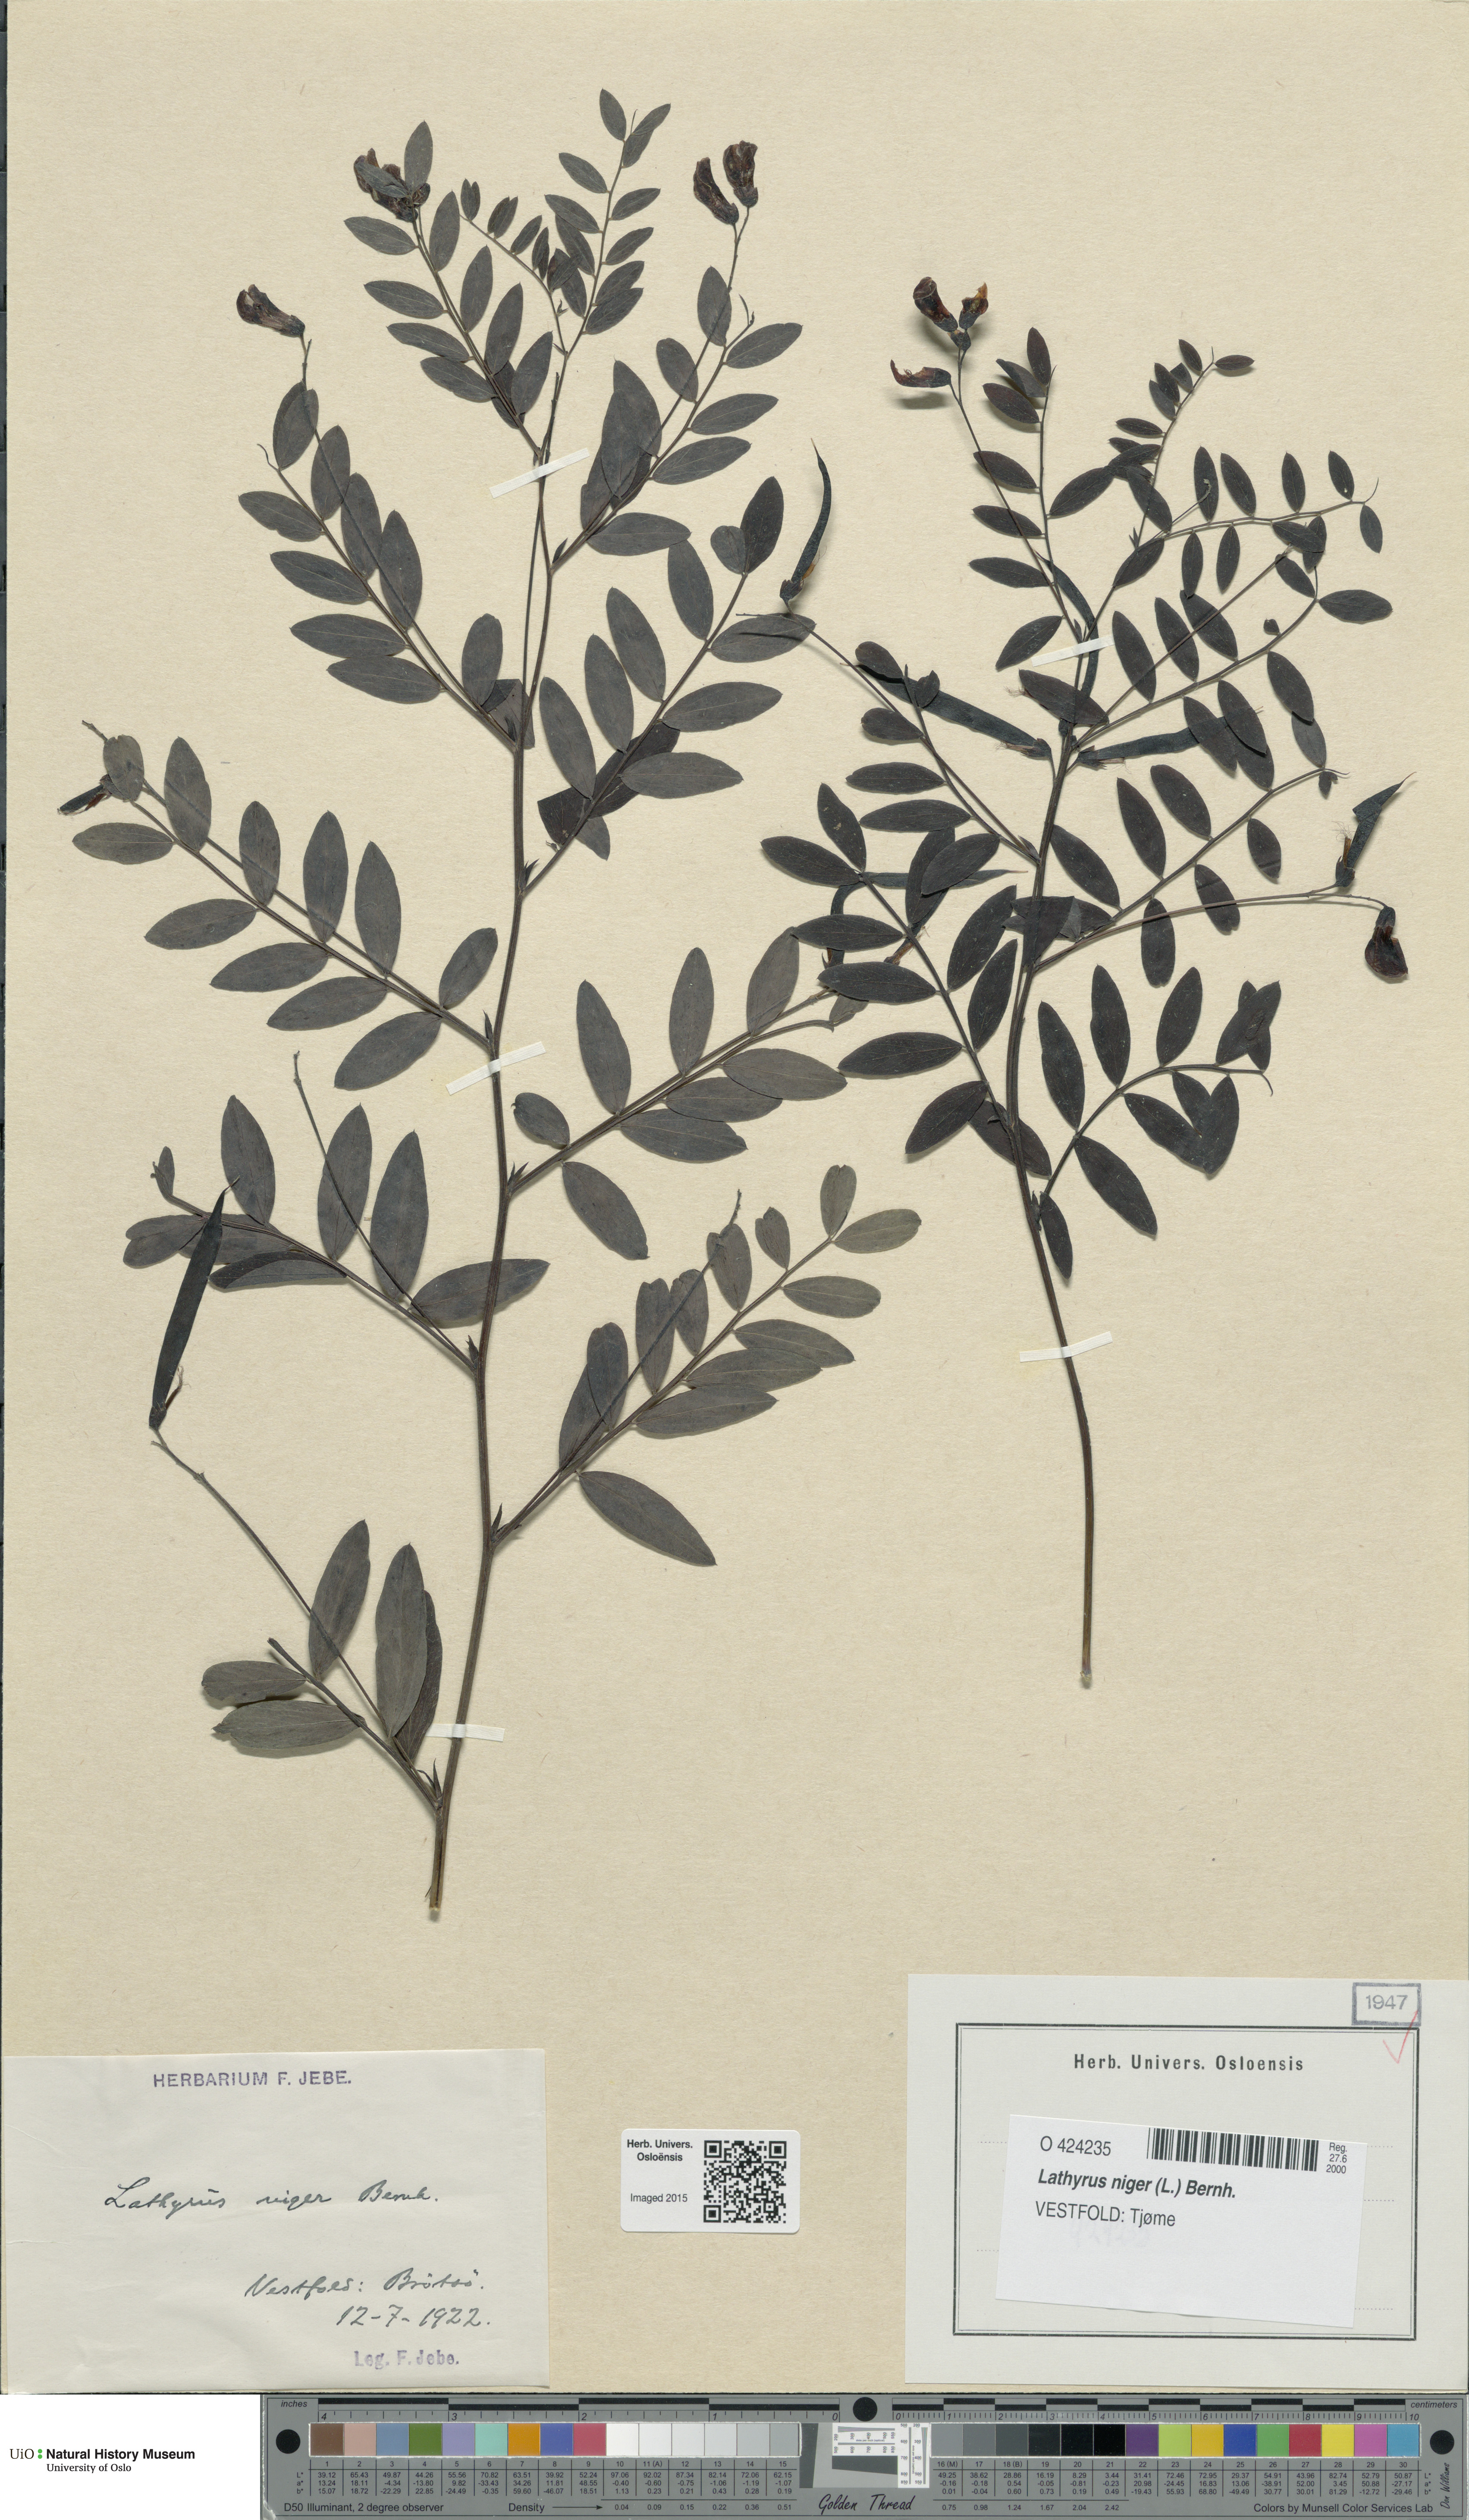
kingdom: Plantae
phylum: Tracheophyta
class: Magnoliopsida
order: Fabales
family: Fabaceae
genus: Lathyrus
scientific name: Lathyrus niger
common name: Black pea
